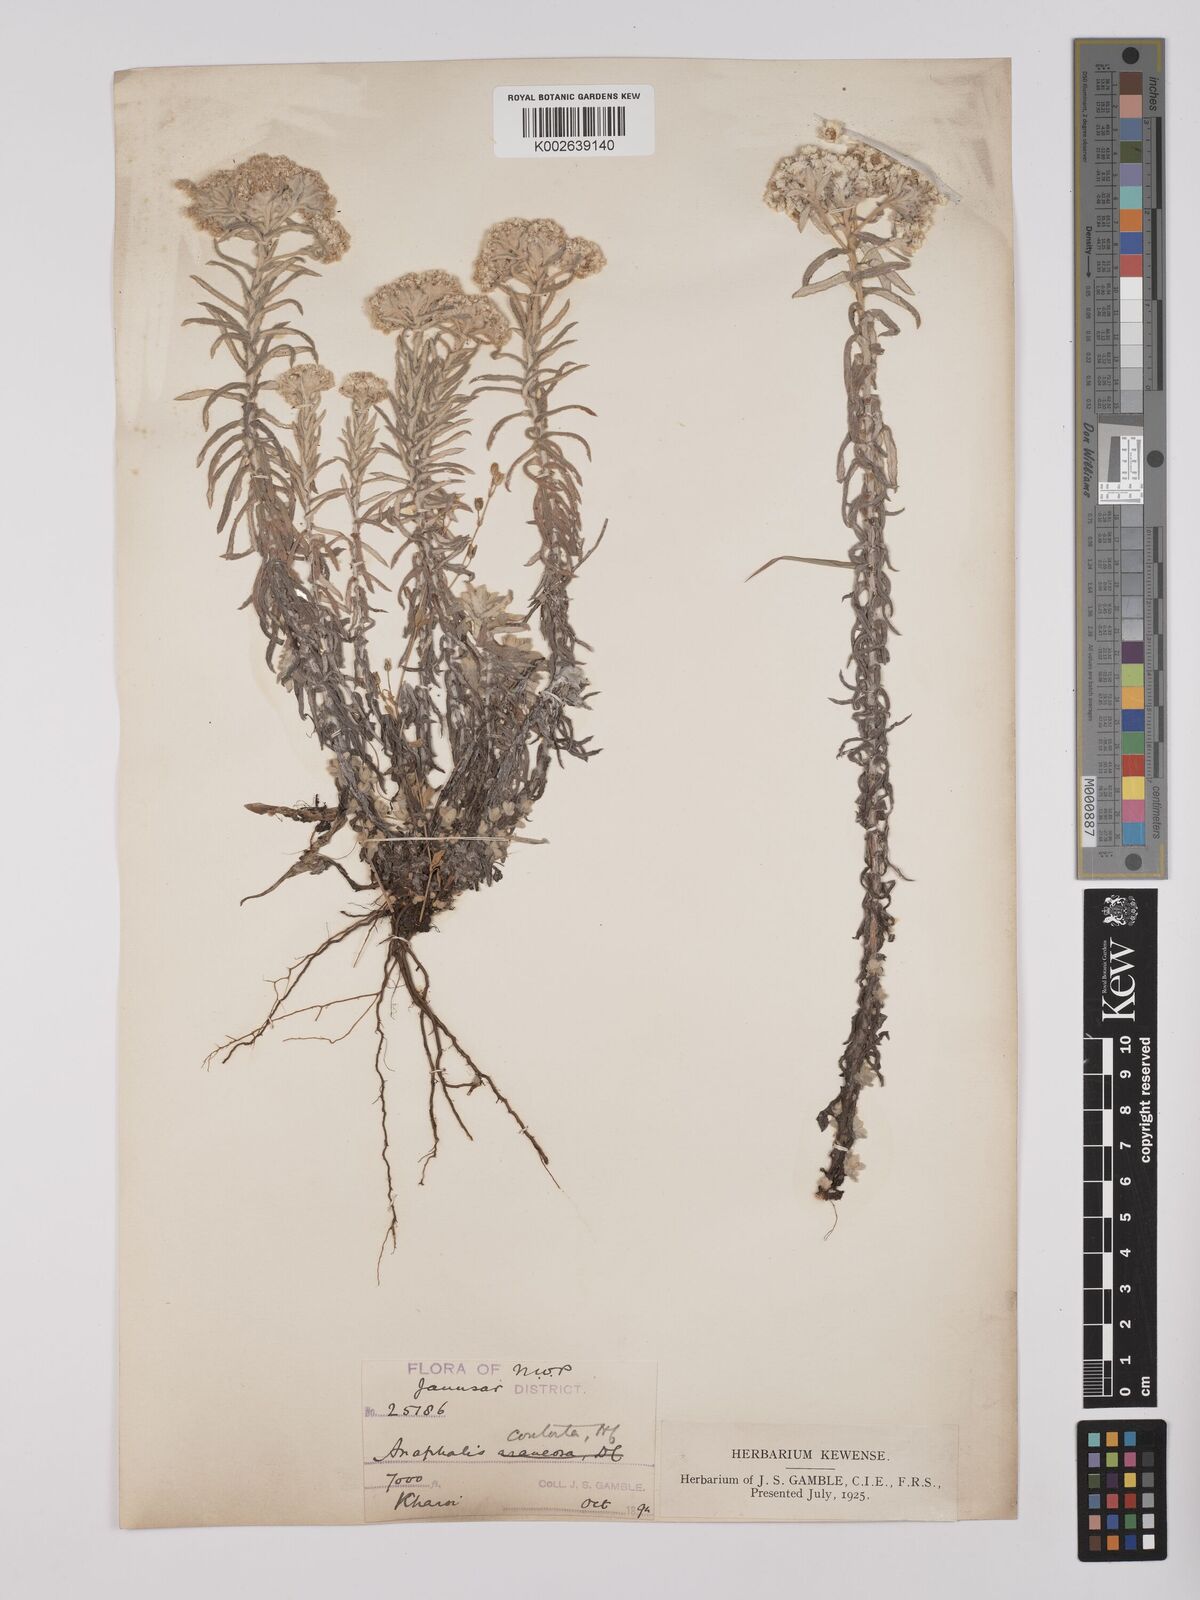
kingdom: Plantae
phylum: Tracheophyta
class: Magnoliopsida
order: Asterales
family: Asteraceae
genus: Anaphalis
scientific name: Anaphalis contorta
